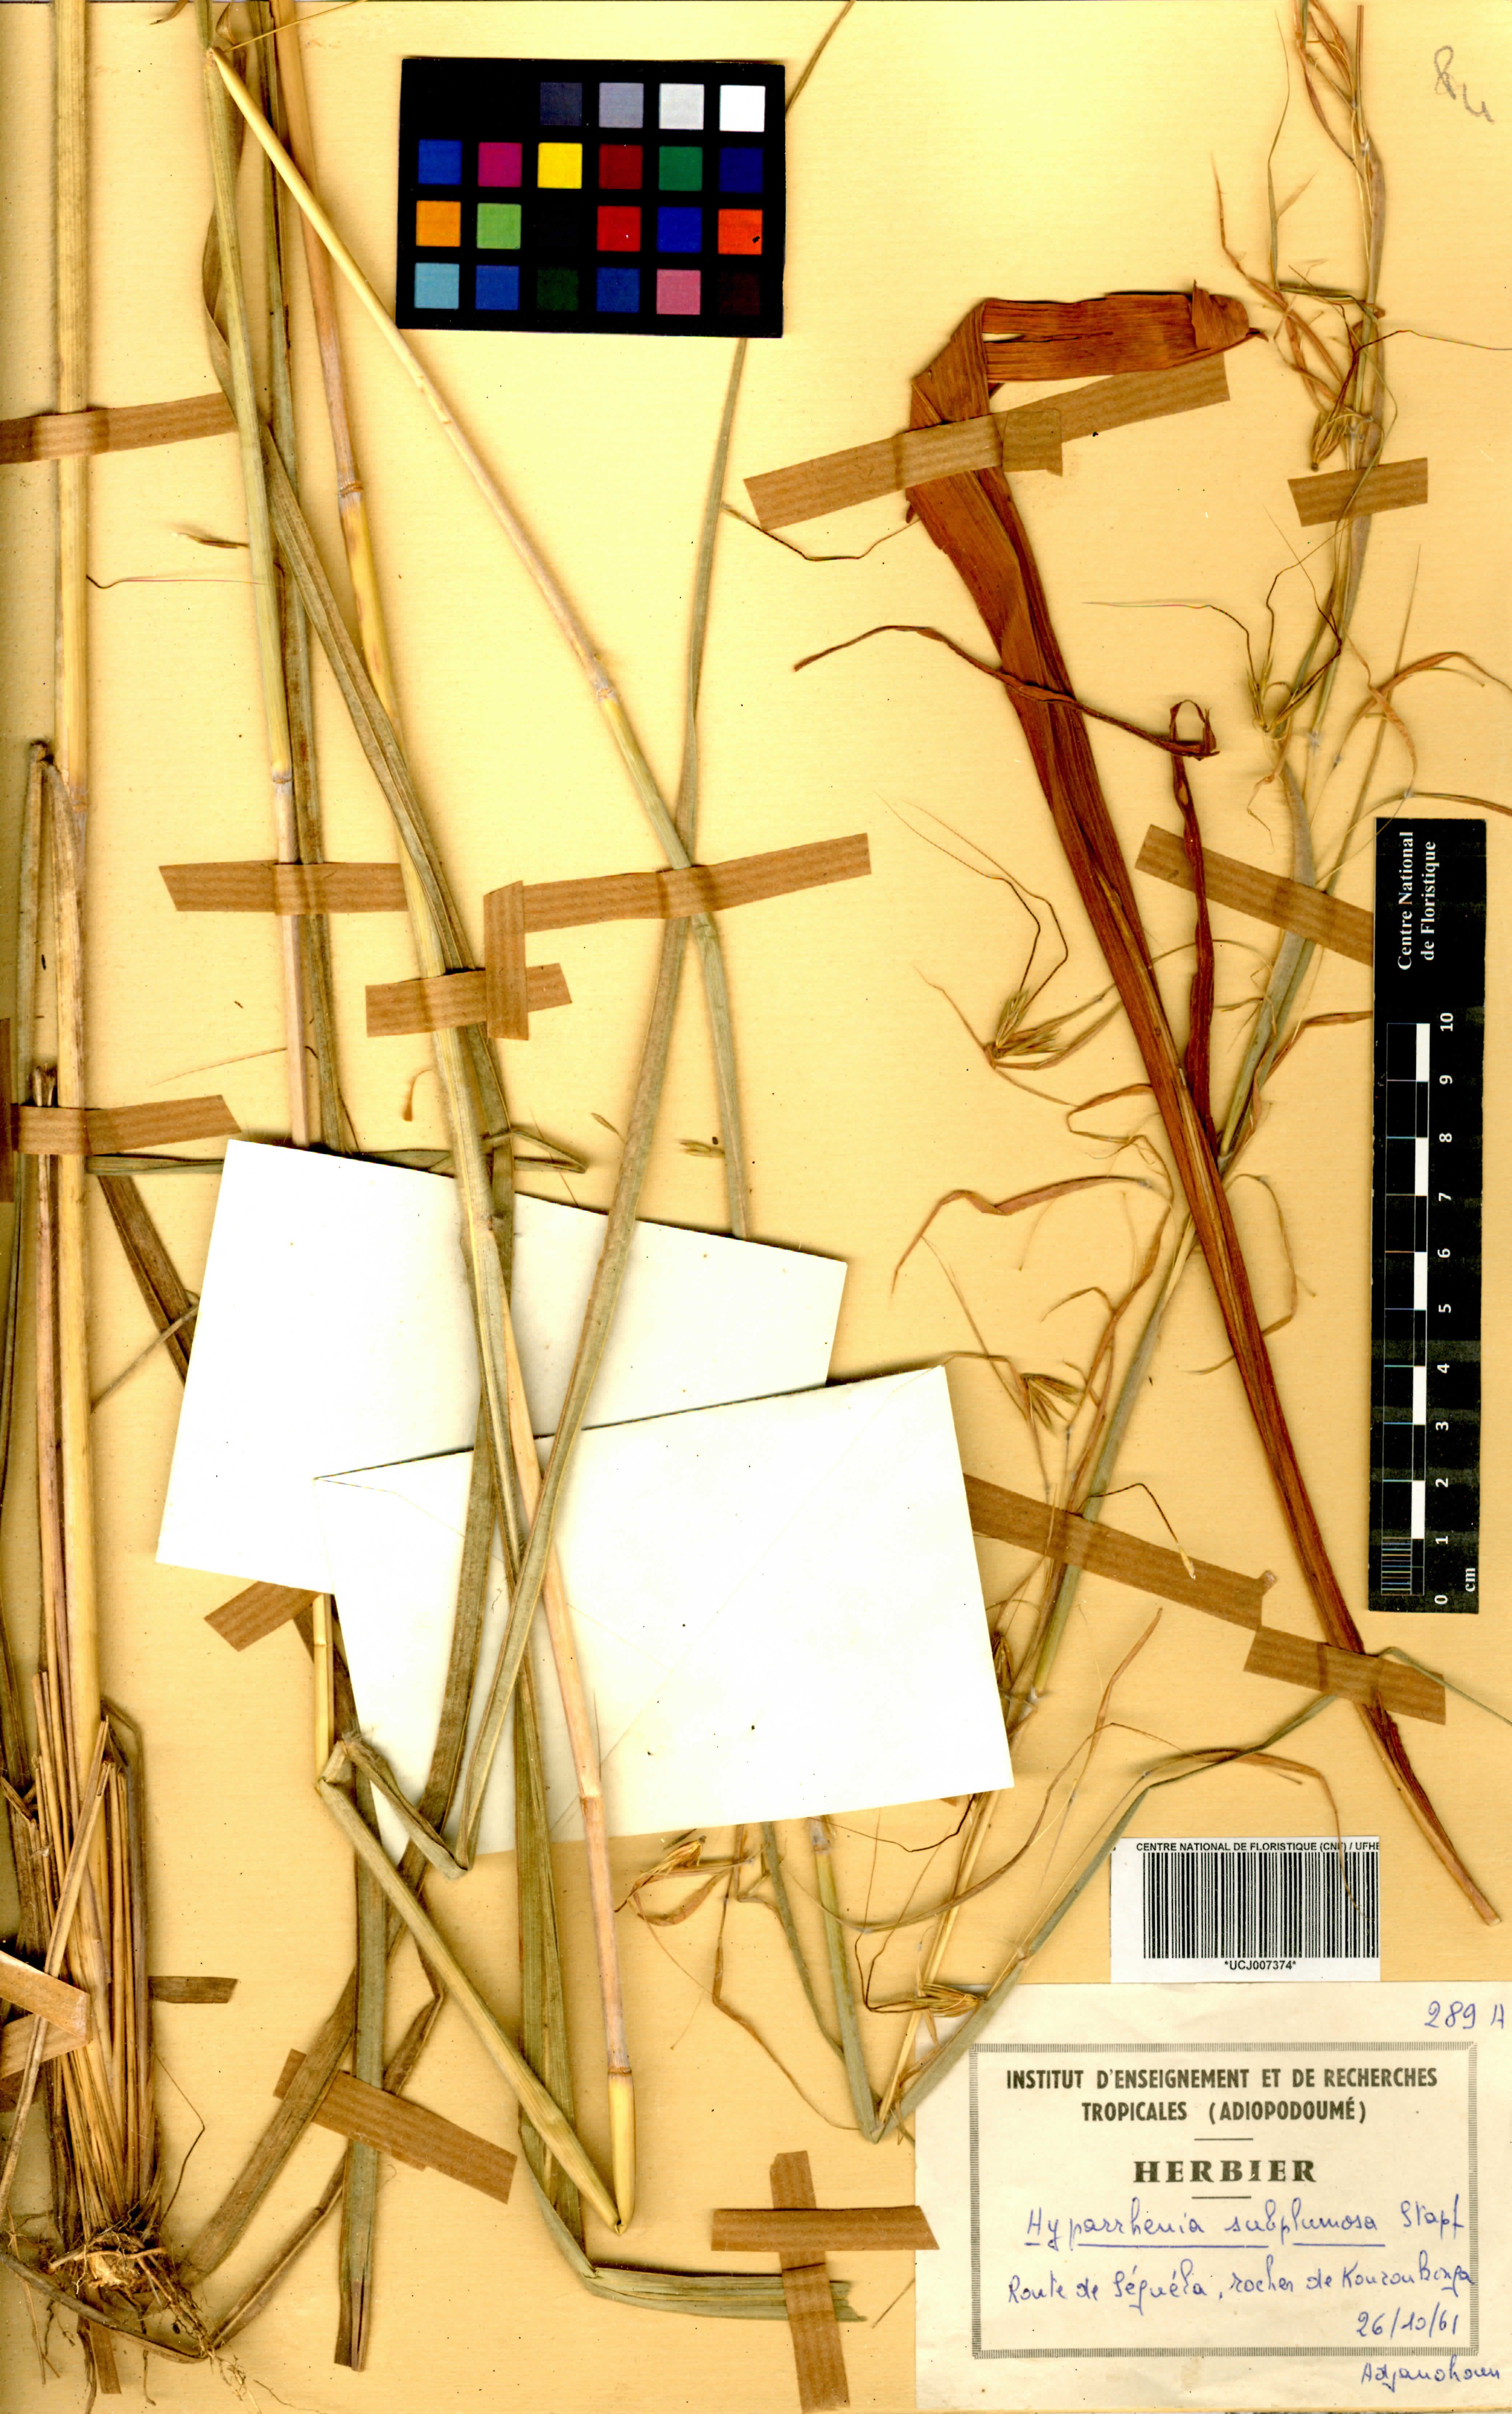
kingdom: Plantae
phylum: Tracheophyta
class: Liliopsida
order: Poales
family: Poaceae
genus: Hyparrhenia
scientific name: Hyparrhenia subplumosa
